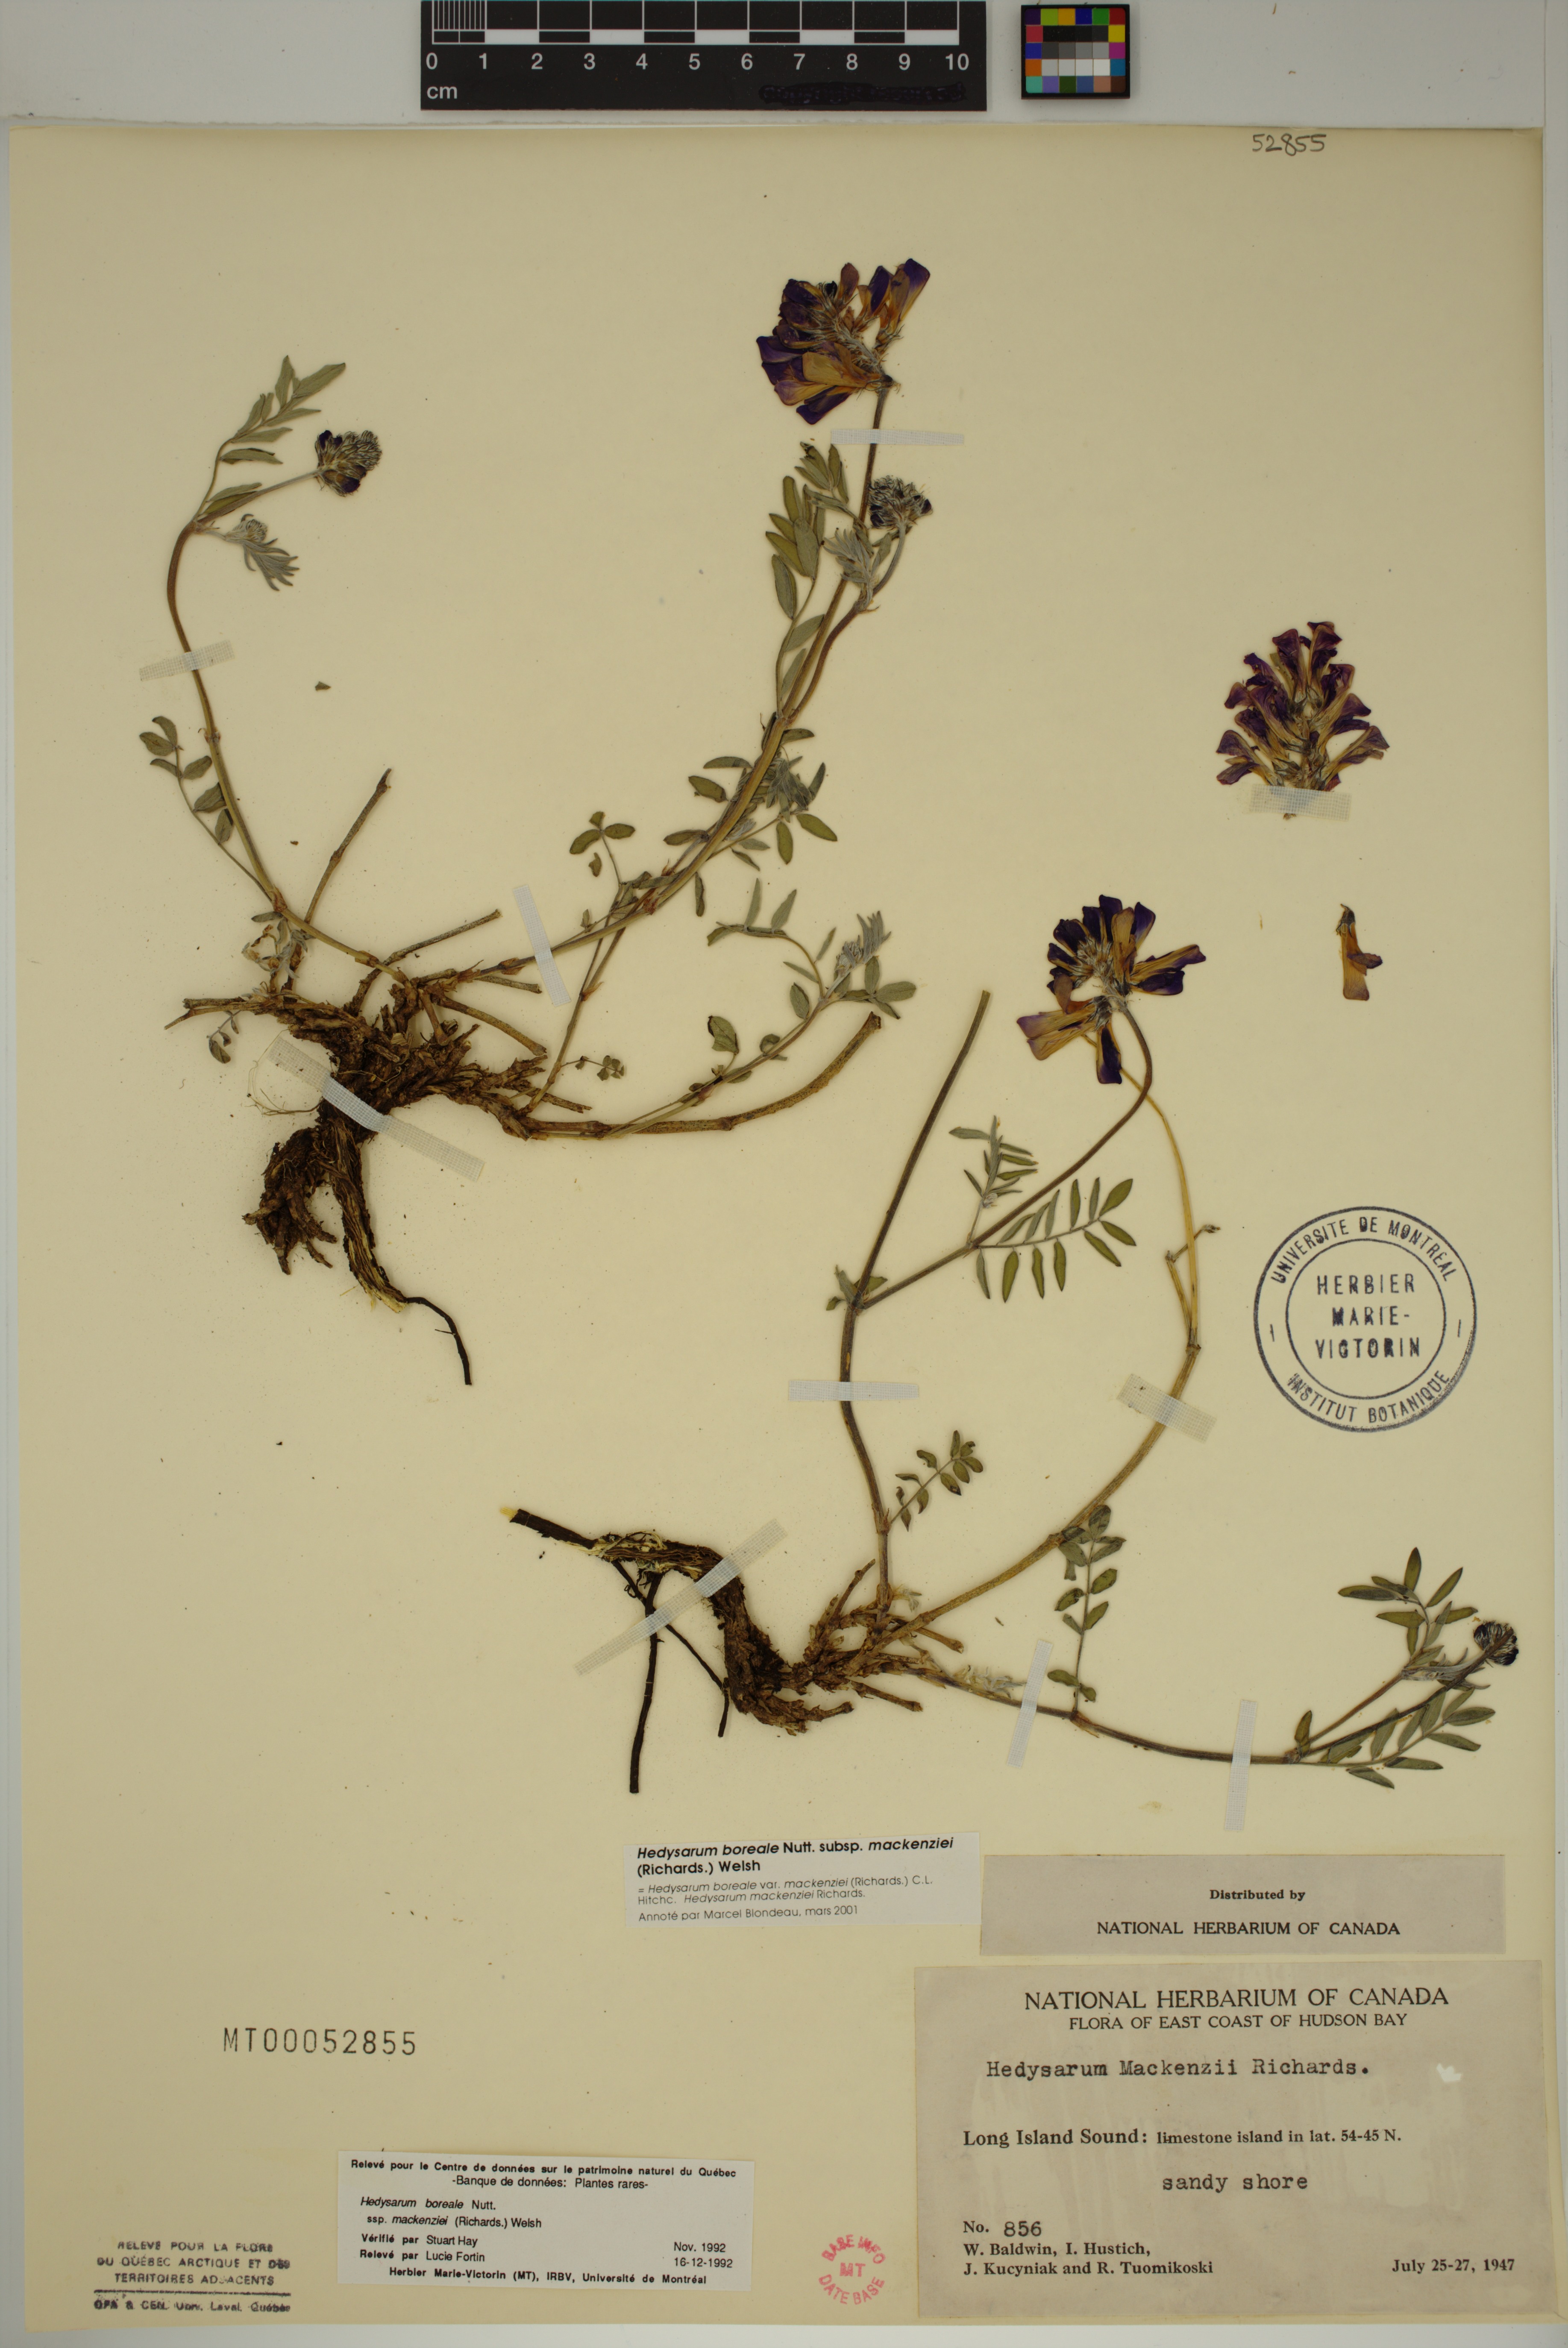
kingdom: Plantae
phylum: Tracheophyta
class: Magnoliopsida
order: Fabales
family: Fabaceae
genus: Hedysarum
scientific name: Hedysarum boreale
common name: Northern sweet-vetch
